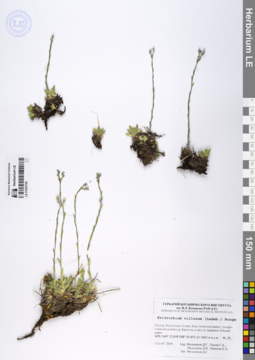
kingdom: Plantae
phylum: Tracheophyta
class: Magnoliopsida
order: Boraginales
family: Boraginaceae
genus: Eritrichium
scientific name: Eritrichium villosum
